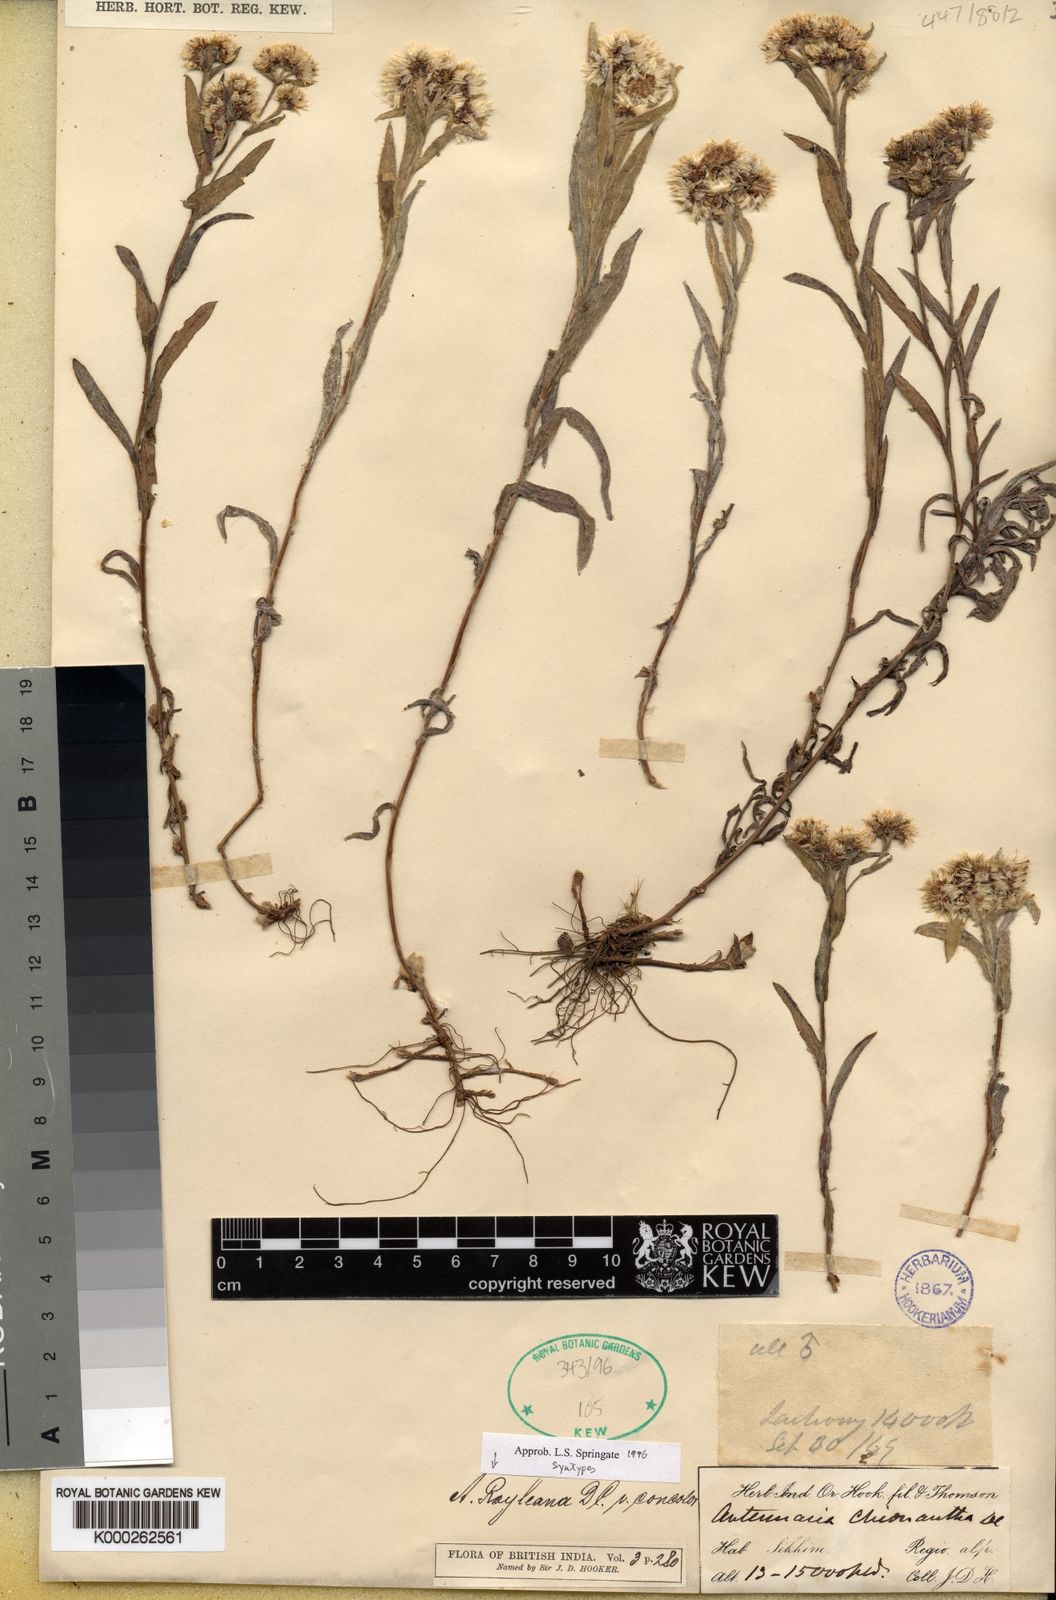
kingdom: Plantae
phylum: Tracheophyta
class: Magnoliopsida
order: Asterales
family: Asteraceae
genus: Anaphalis
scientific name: Anaphalis royleana
